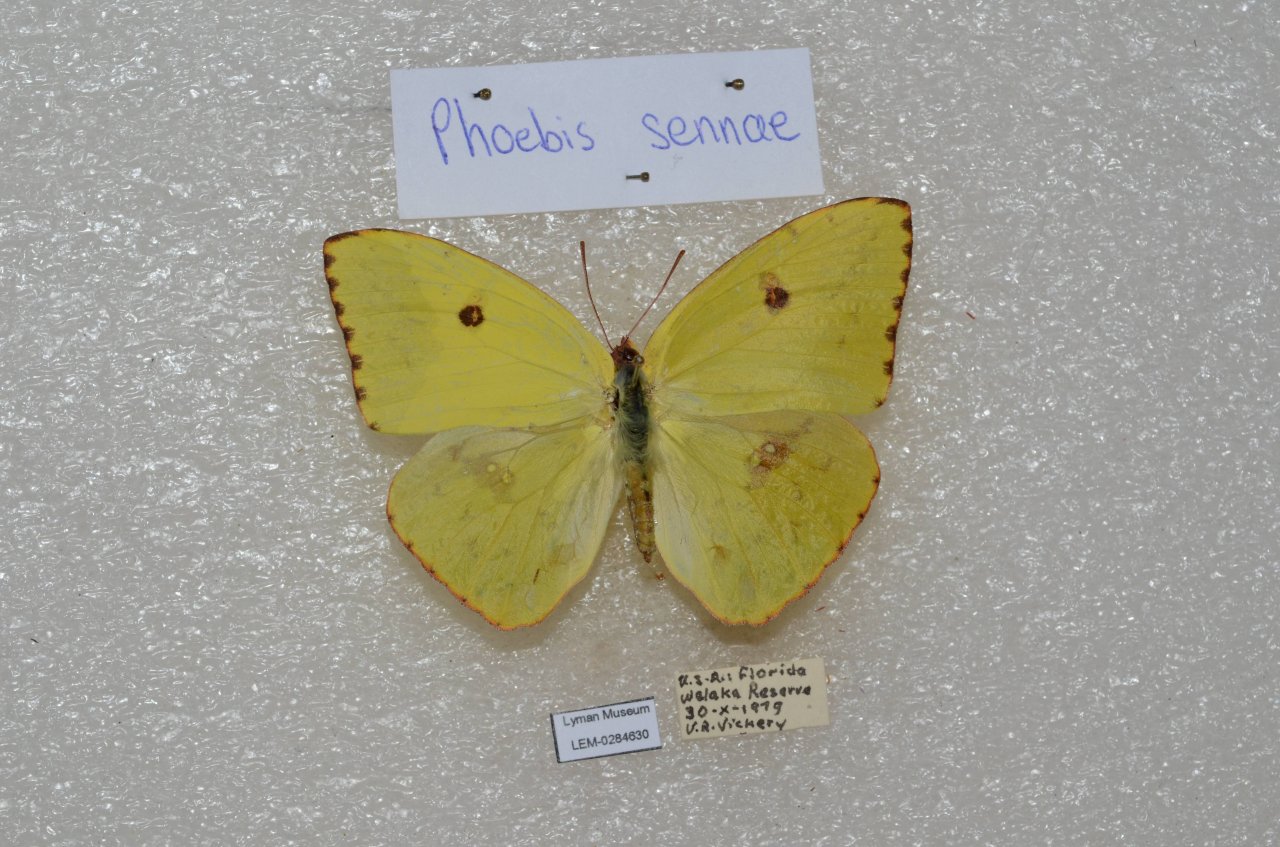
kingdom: Animalia
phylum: Arthropoda
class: Insecta
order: Lepidoptera
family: Pieridae
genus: Phoebis
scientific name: Phoebis sennae
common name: Cloudless Sulphur
